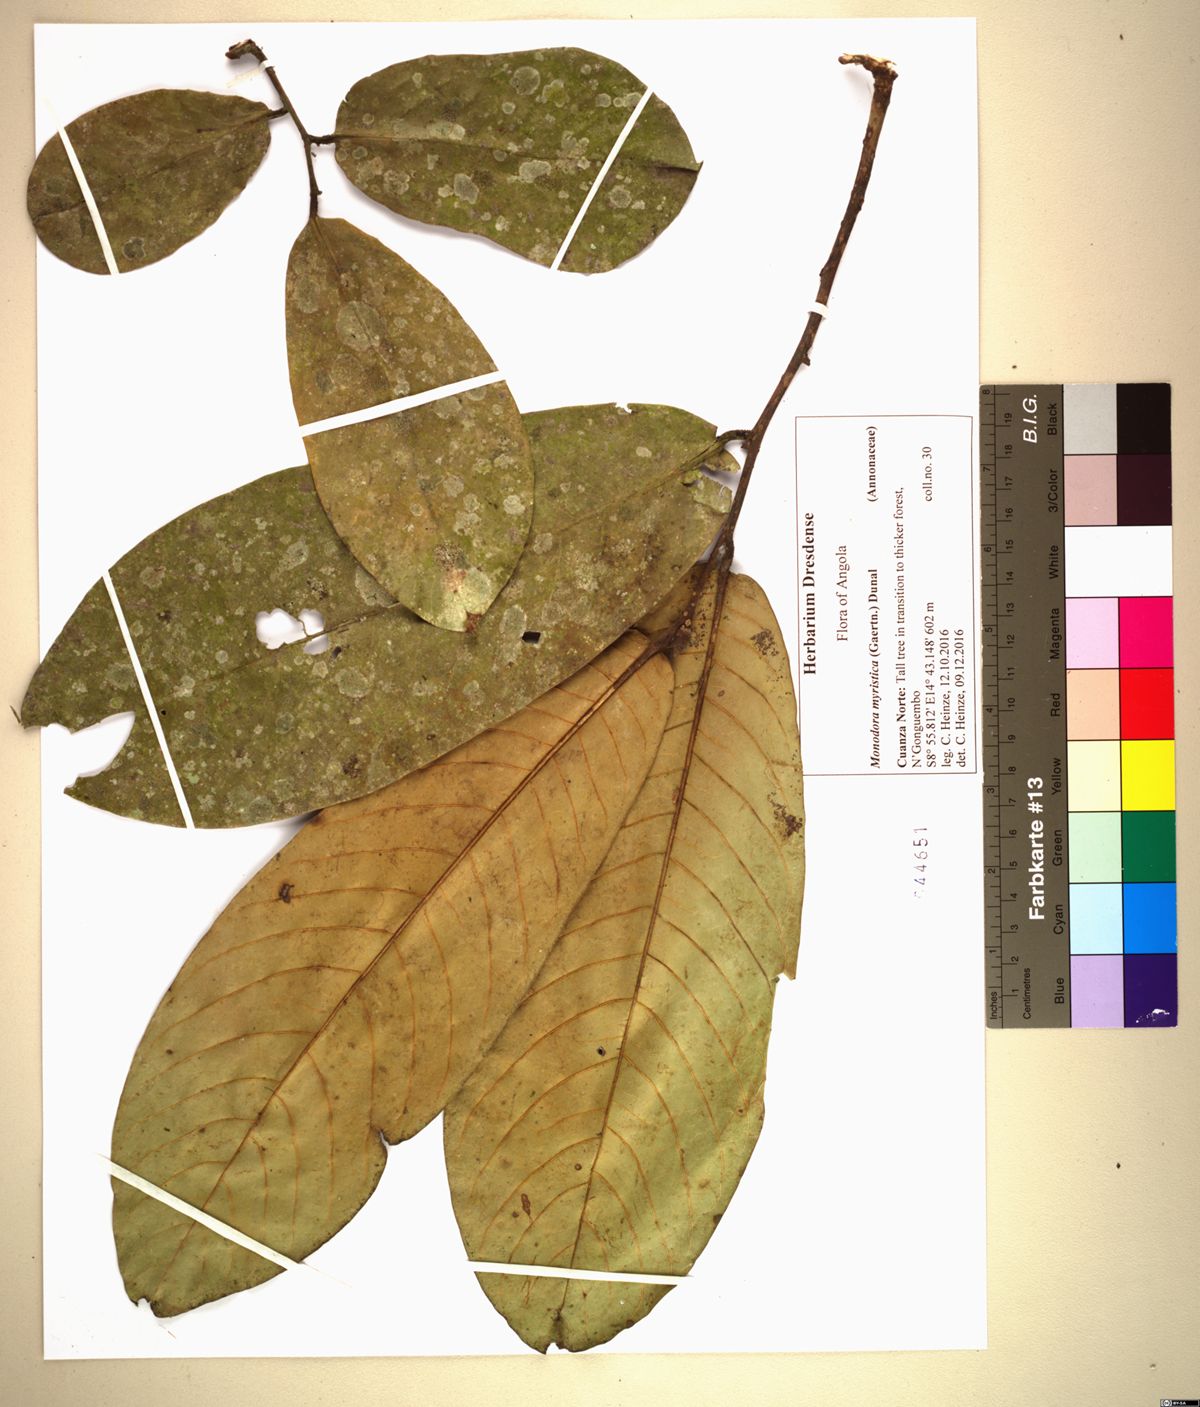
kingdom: Plantae
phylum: Tracheophyta
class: Magnoliopsida
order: Magnoliales
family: Annonaceae
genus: Monodora
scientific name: Monodora myristica
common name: African nutmeg
